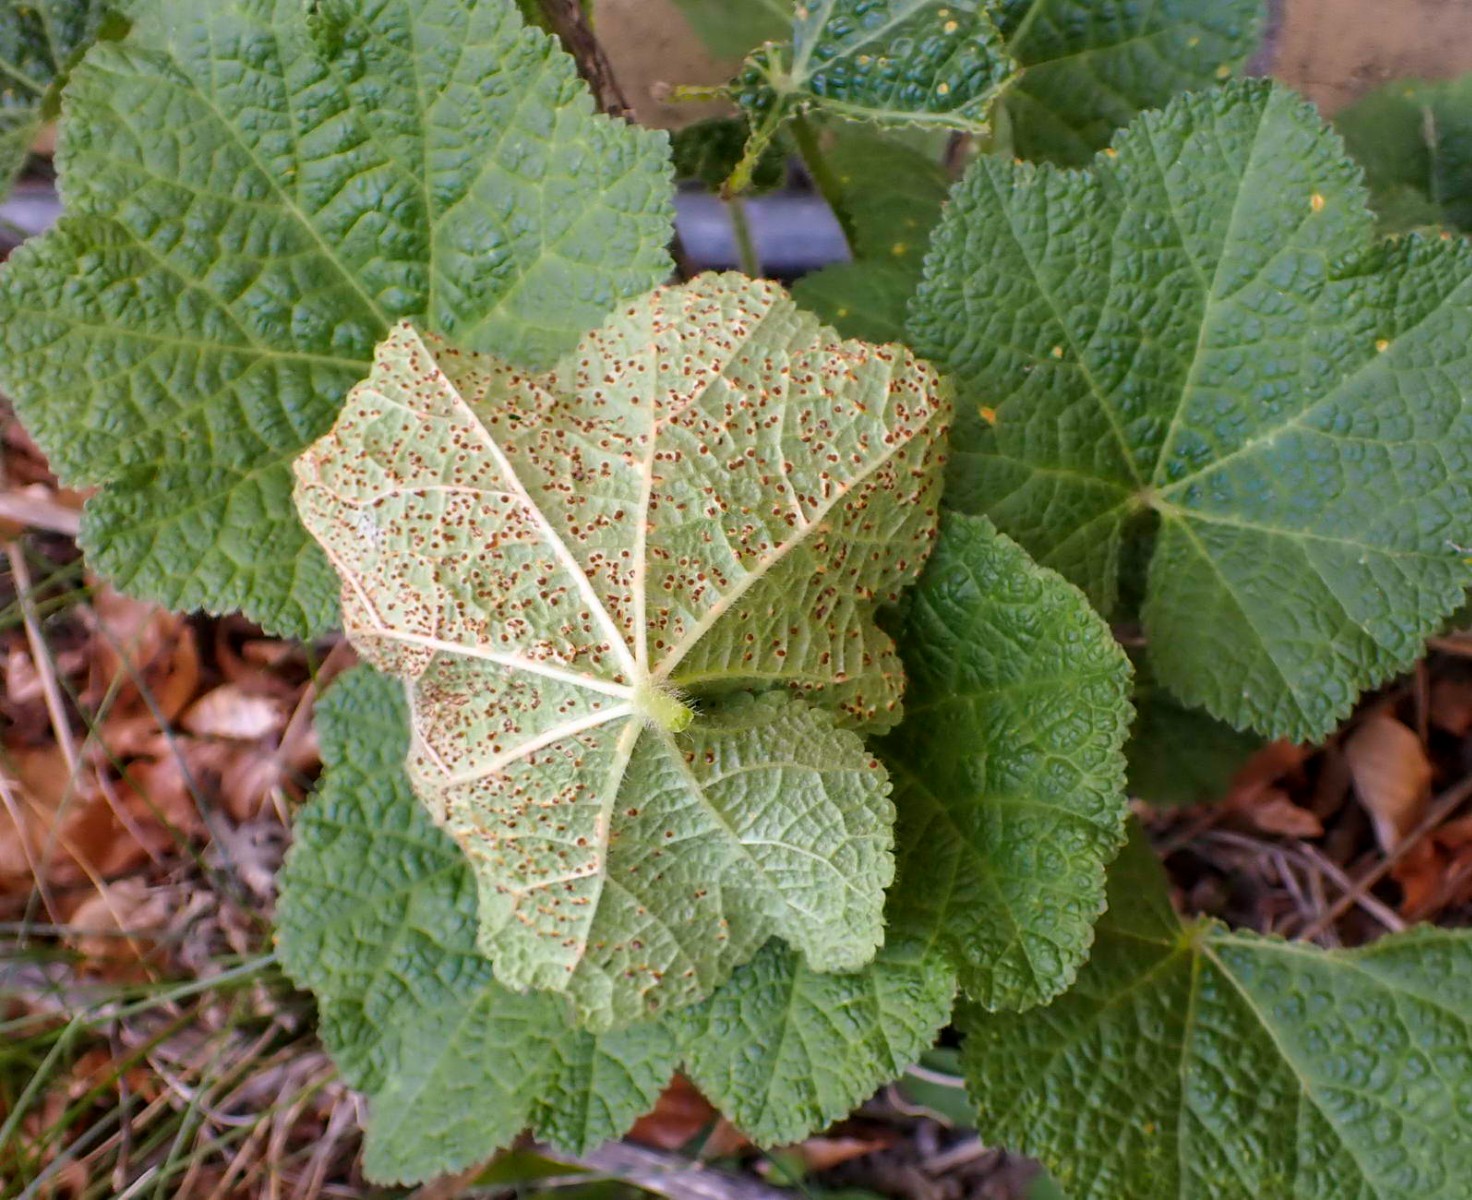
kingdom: Fungi
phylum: Basidiomycota
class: Pucciniomycetes
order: Pucciniales
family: Pucciniaceae
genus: Puccinia
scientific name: Puccinia malvacearum
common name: stokrose-tvecellerust
